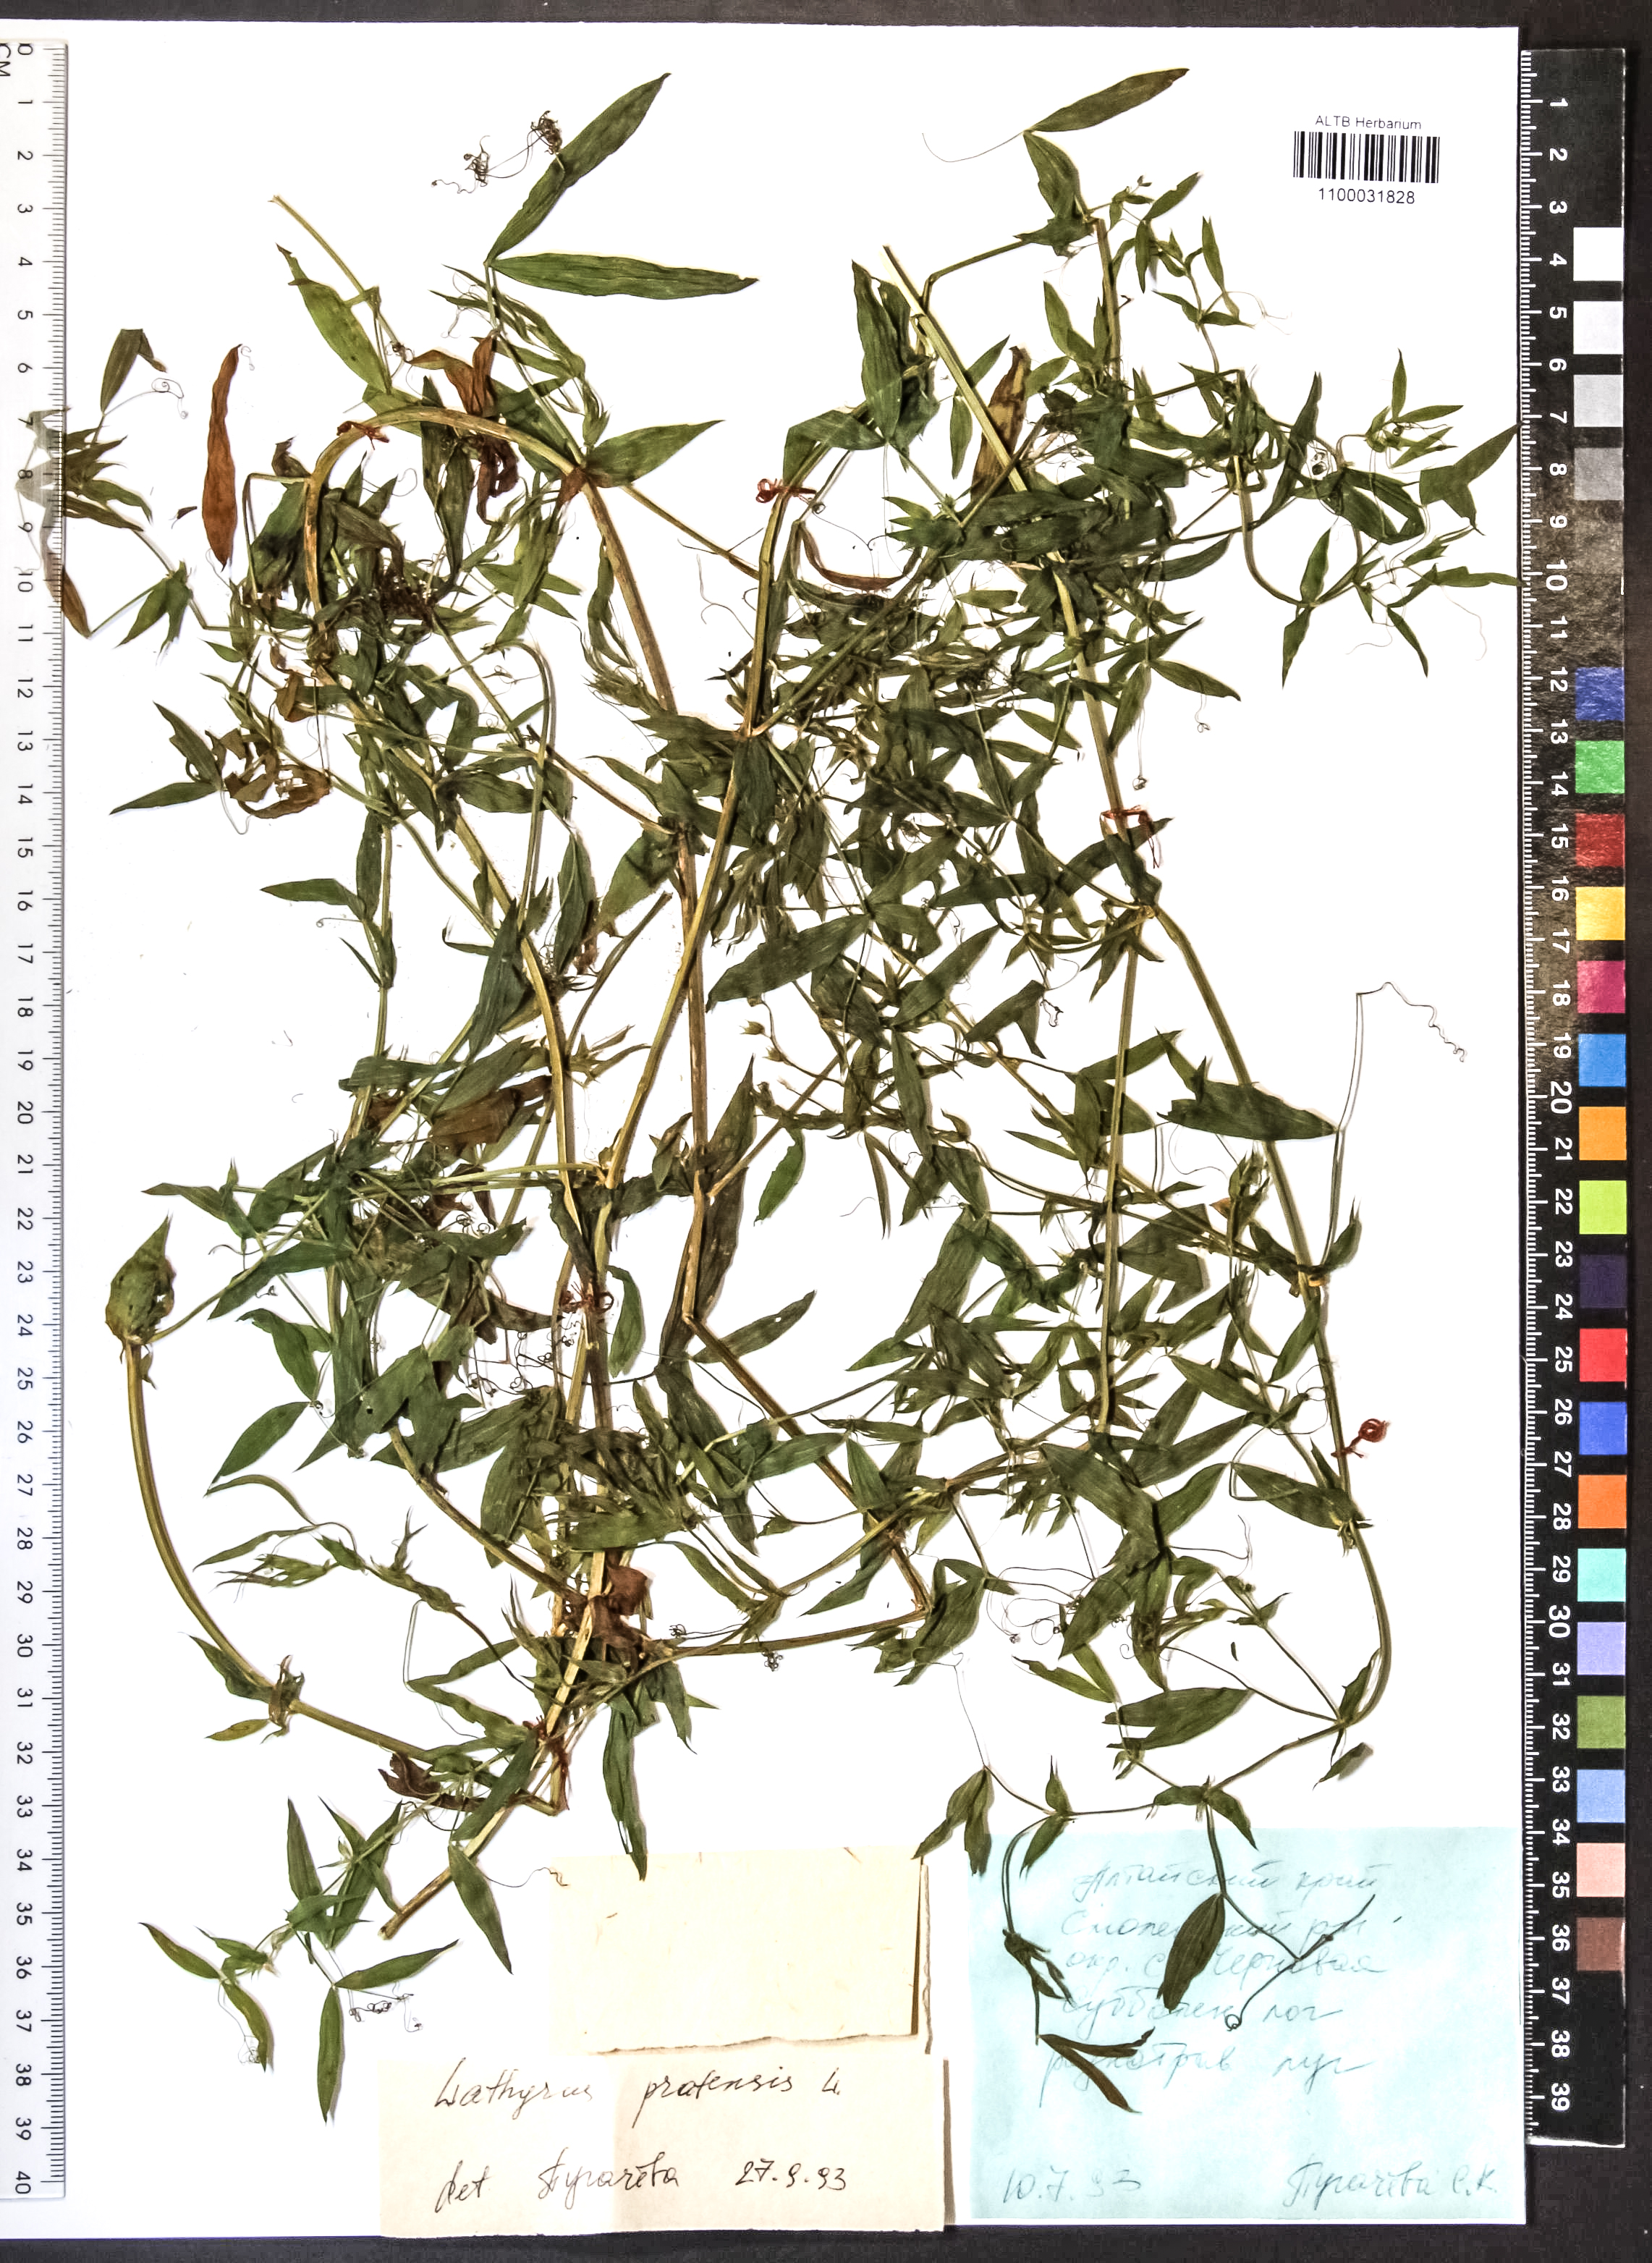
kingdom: Plantae
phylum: Tracheophyta
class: Magnoliopsida
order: Fabales
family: Fabaceae
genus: Lathyrus
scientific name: Lathyrus pratensis
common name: Meadow vetchling
